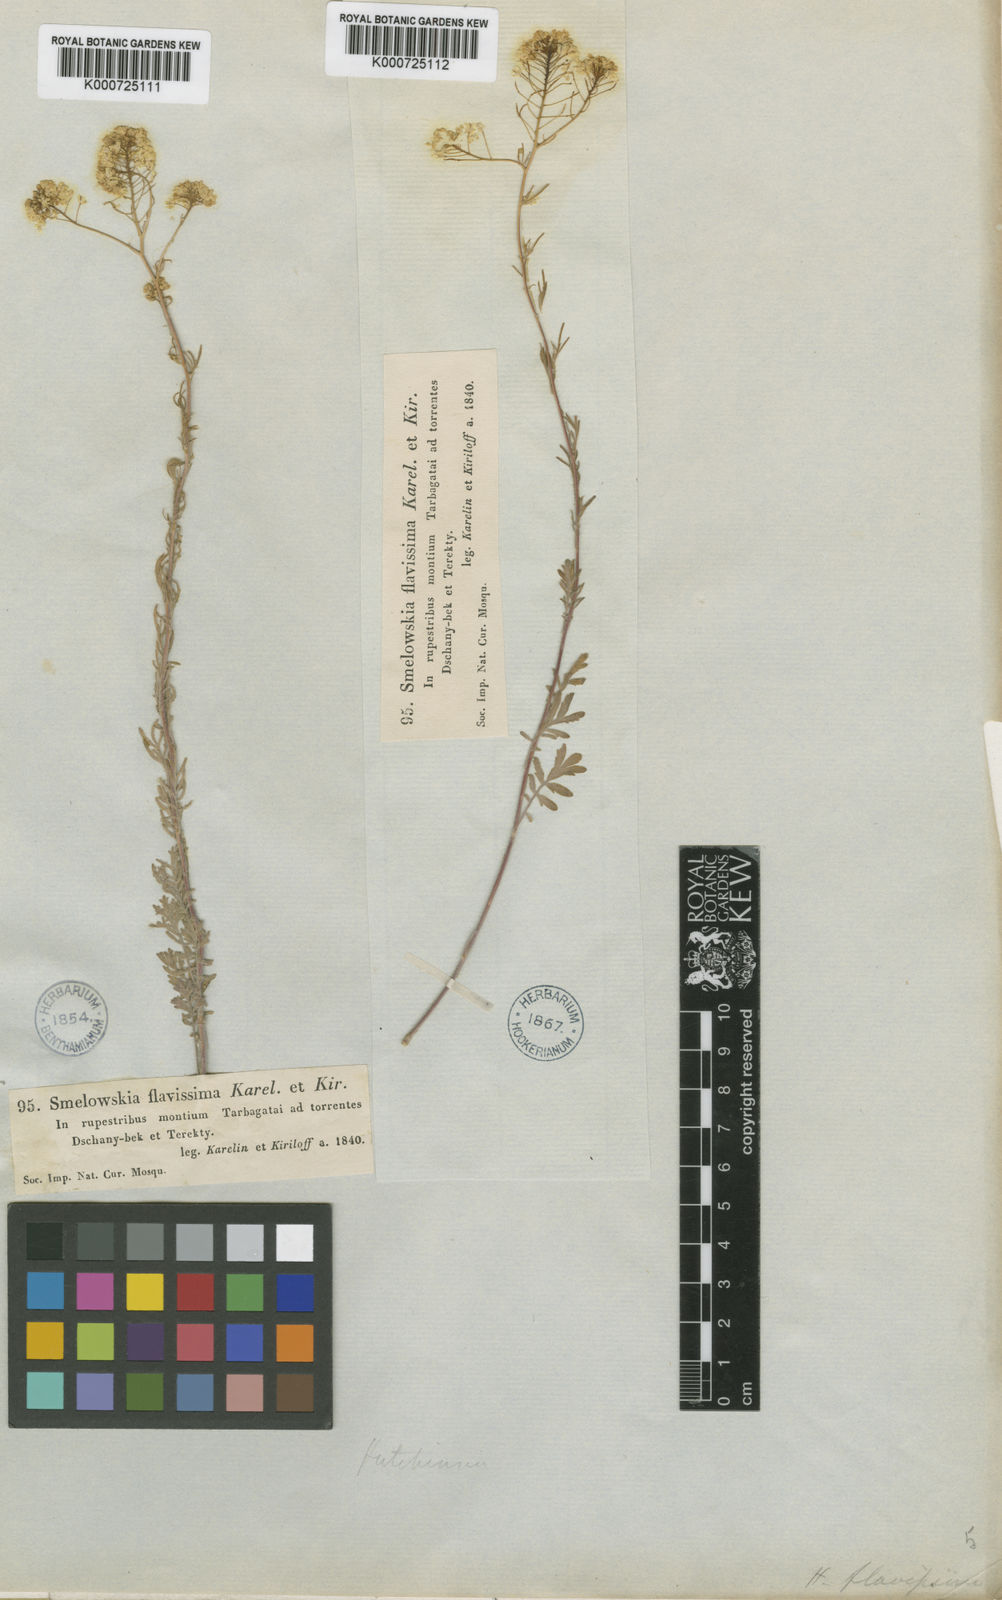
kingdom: Plantae
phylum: Tracheophyta
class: Magnoliopsida
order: Brassicales
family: Brassicaceae
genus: Smelowskia
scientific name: Smelowskia flavissima
